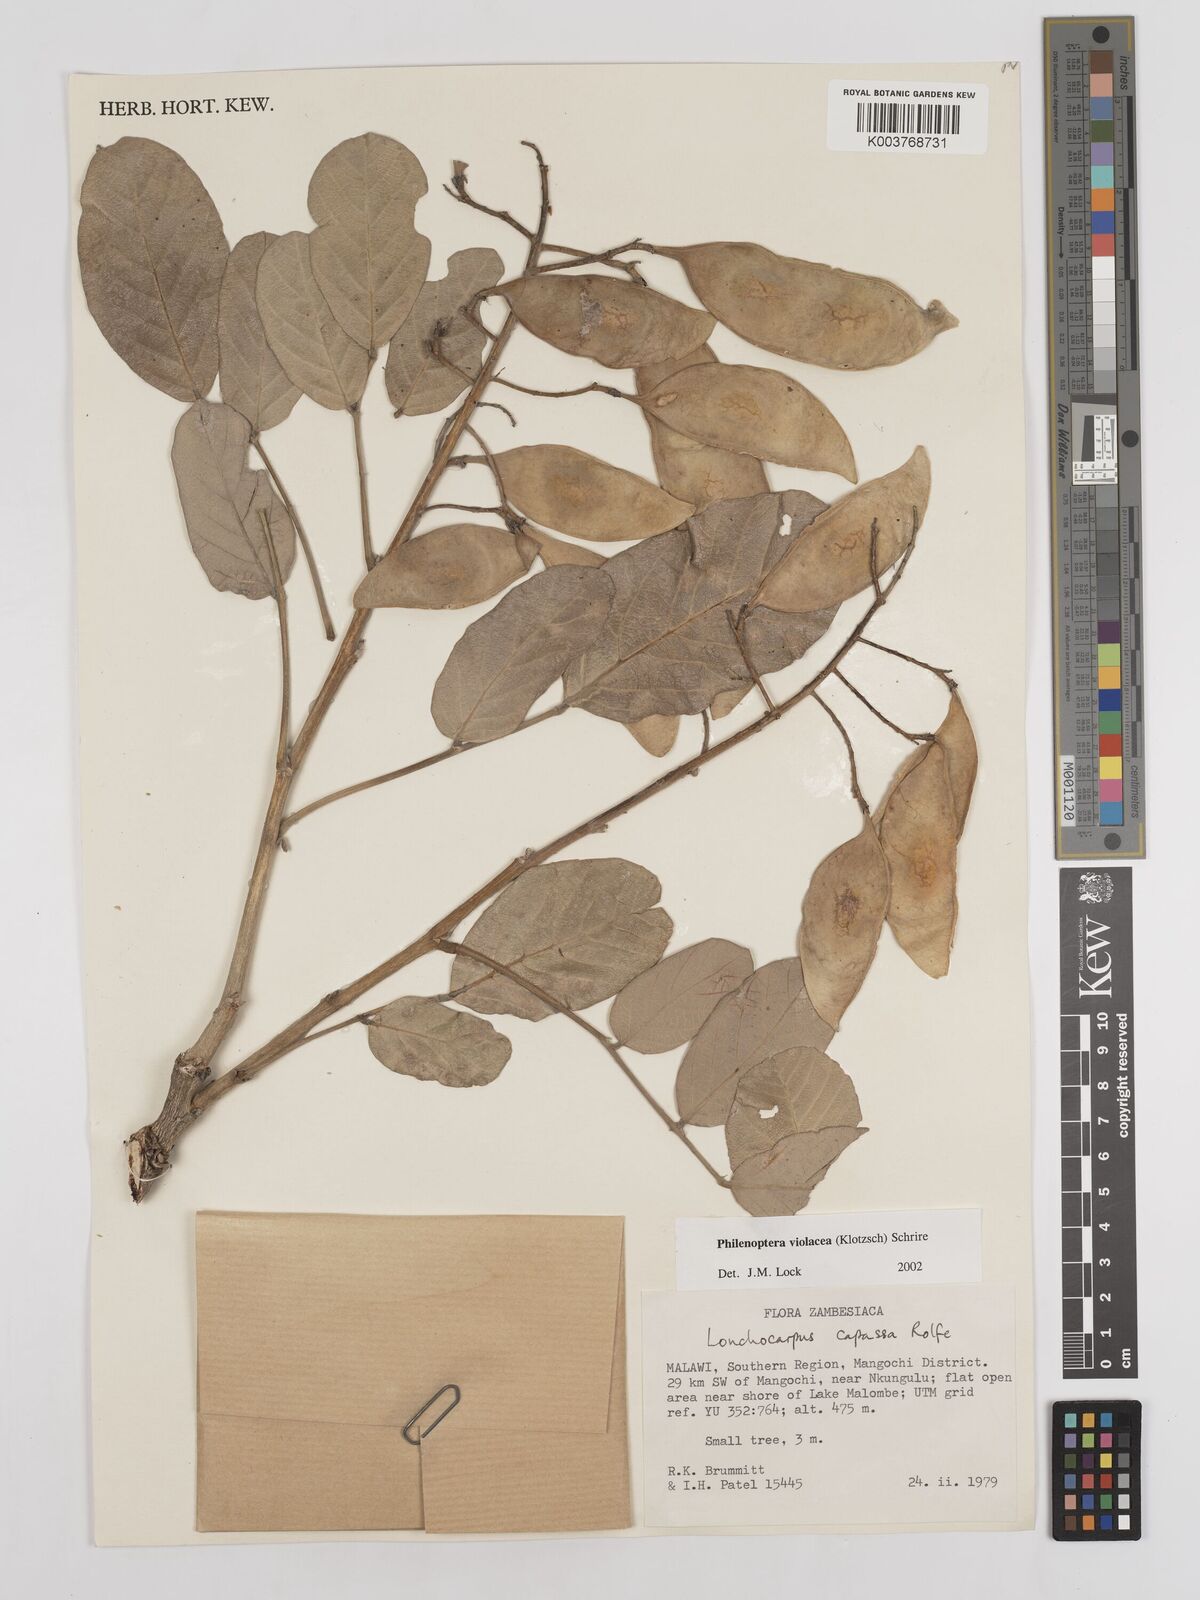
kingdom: Plantae
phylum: Tracheophyta
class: Magnoliopsida
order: Fabales
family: Fabaceae
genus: Philenoptera
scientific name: Philenoptera violacea
